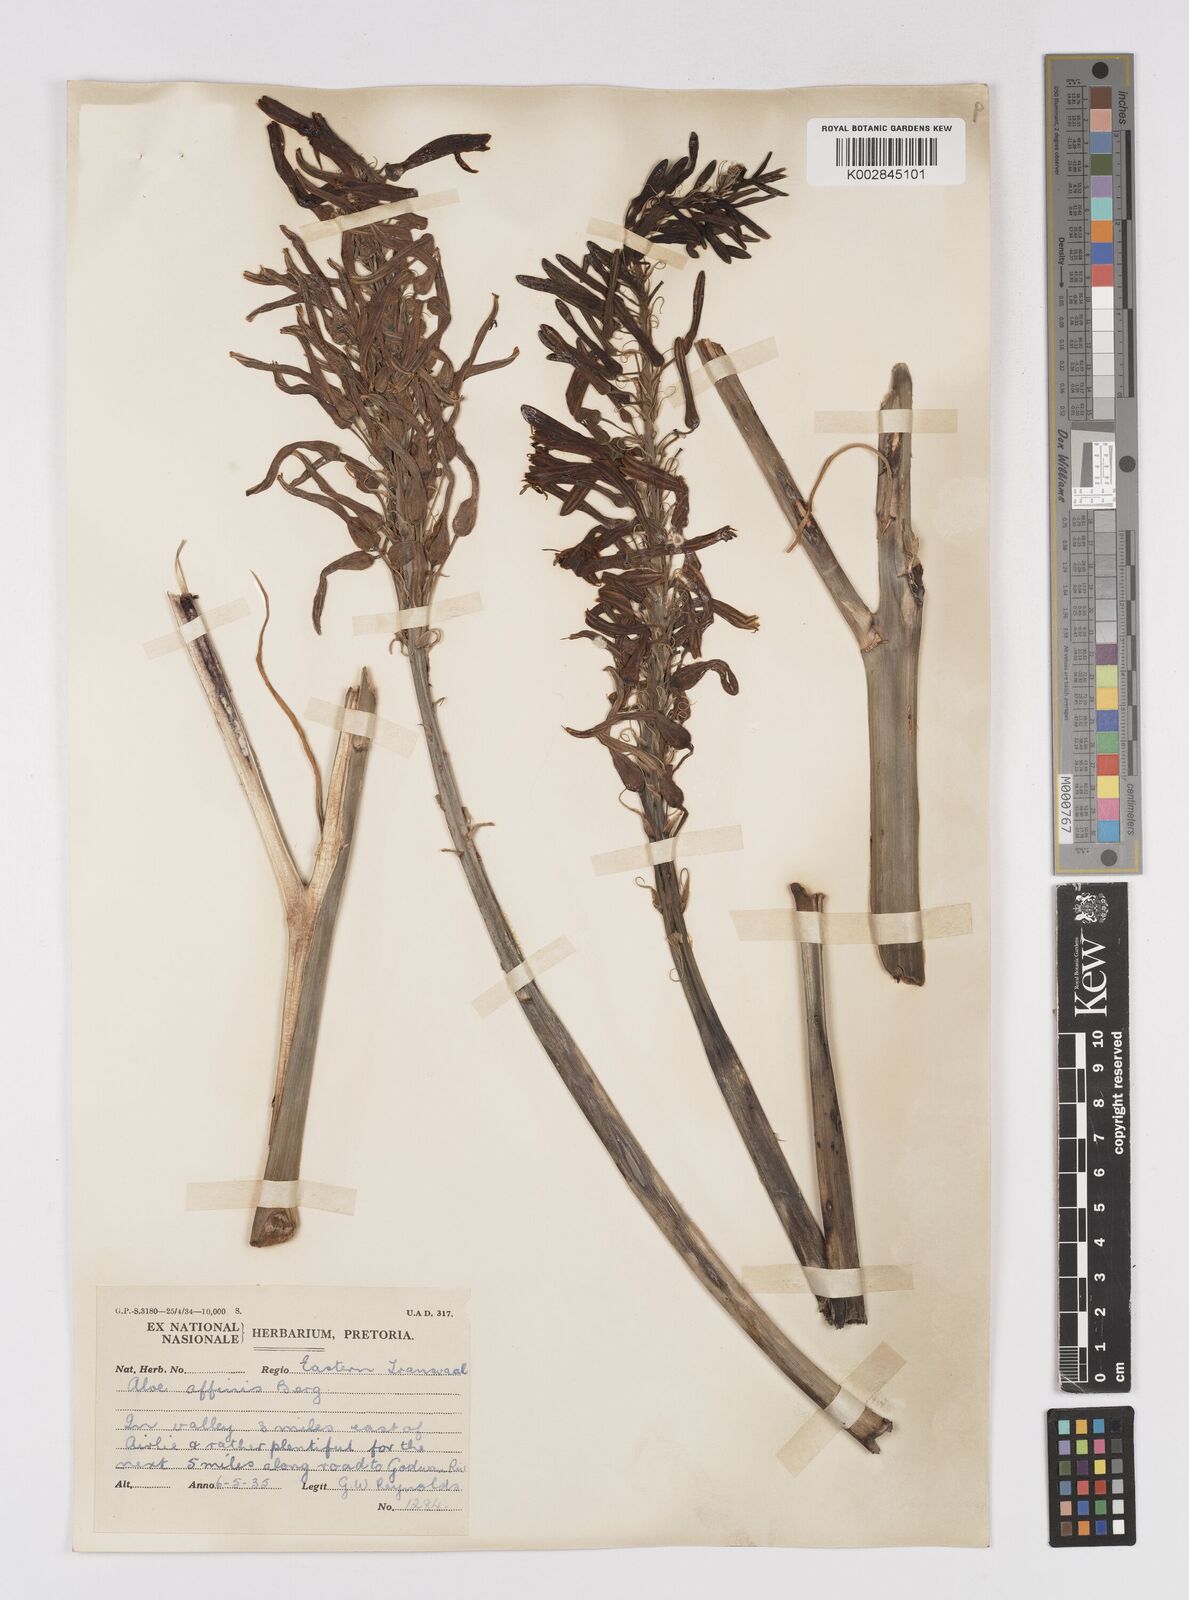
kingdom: Plantae
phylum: Tracheophyta
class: Liliopsida
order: Asparagales
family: Asphodelaceae
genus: Aloe
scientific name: Aloe affinis
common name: Spotted aloe
